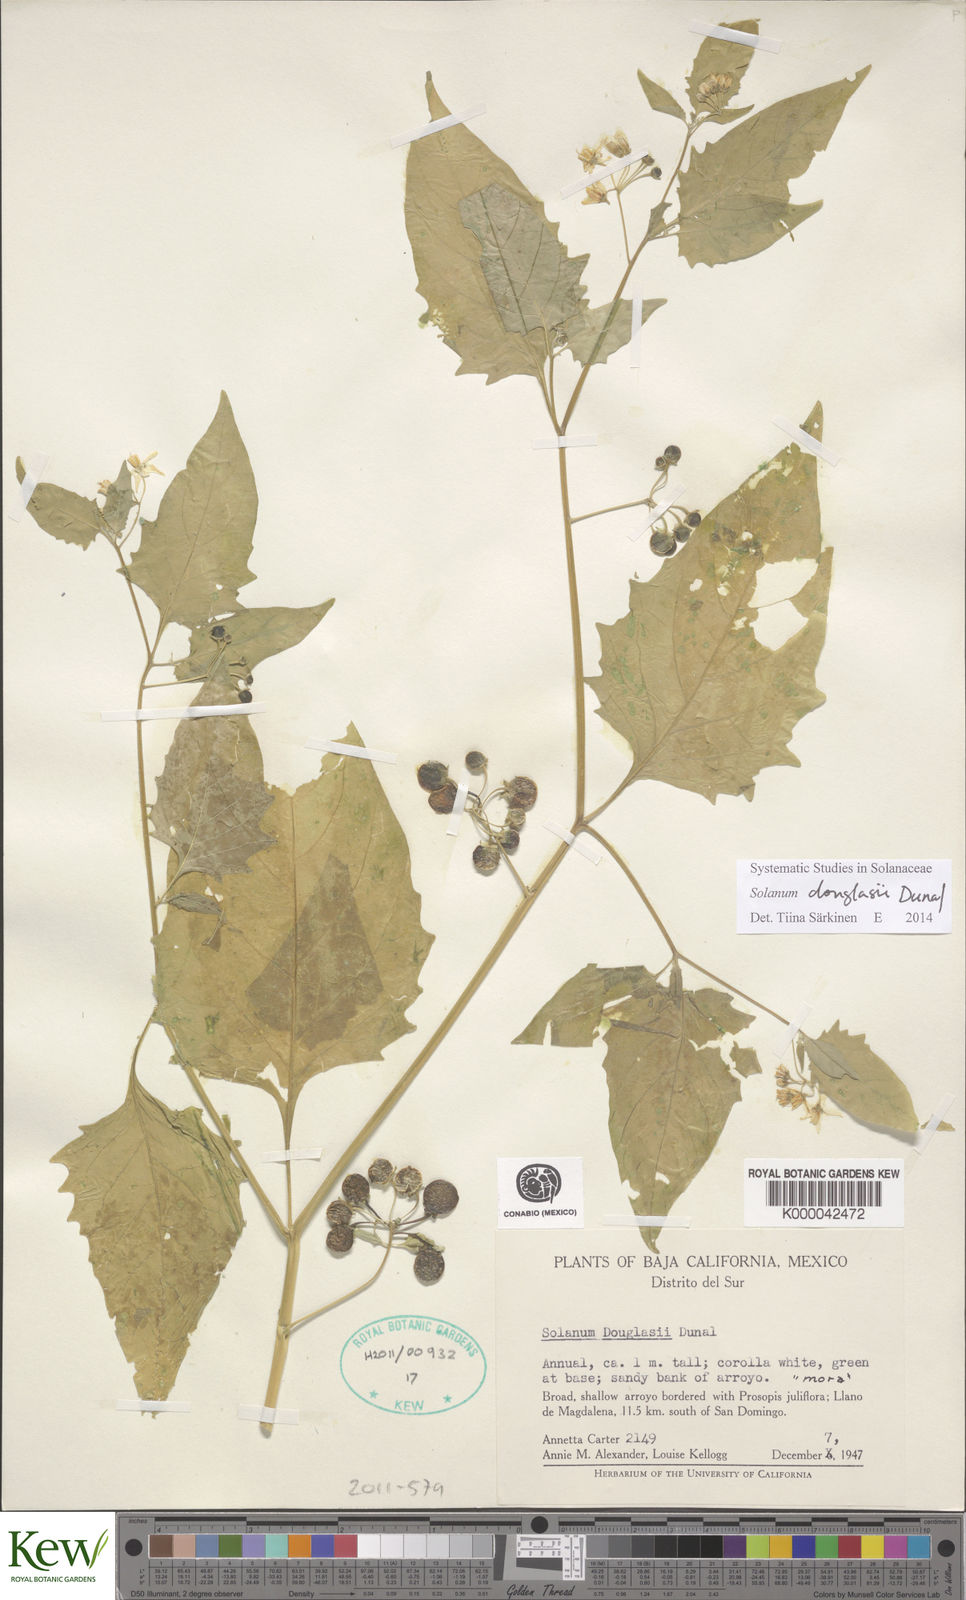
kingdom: Plantae
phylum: Tracheophyta
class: Magnoliopsida
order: Solanales
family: Solanaceae
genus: Solanum
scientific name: Solanum douglasii
